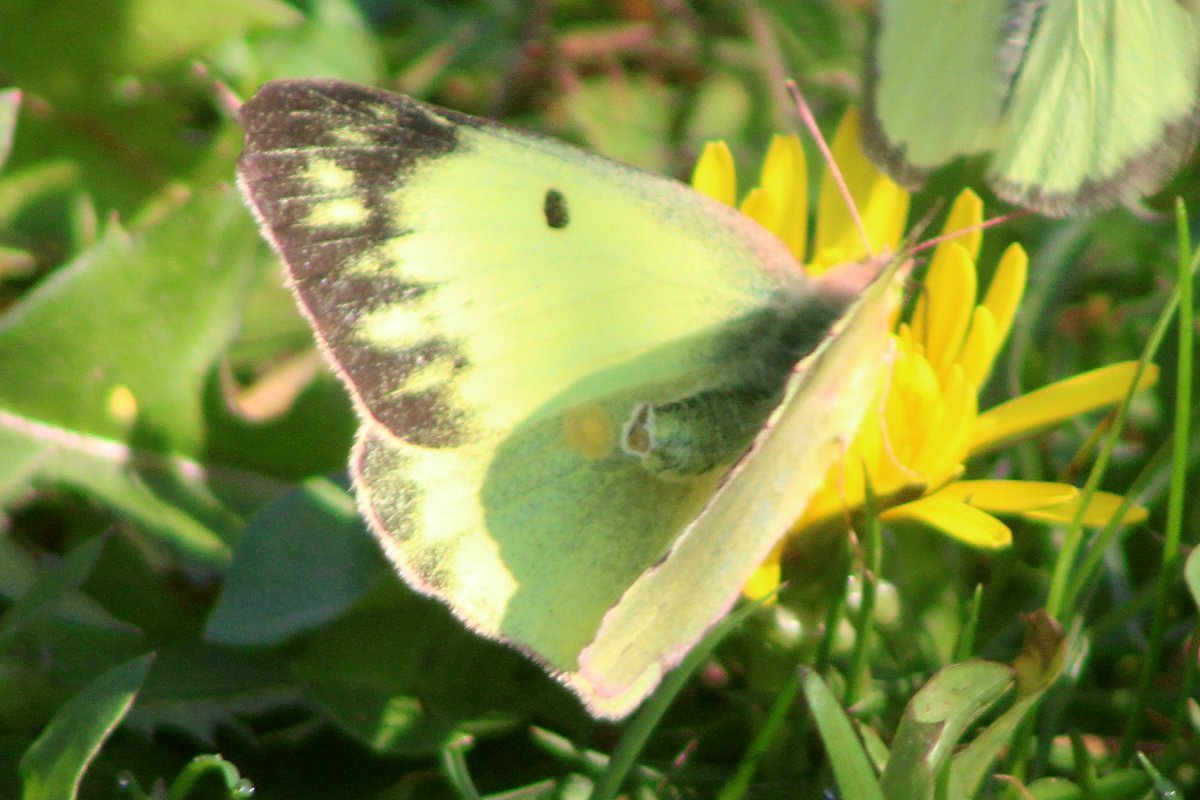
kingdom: Animalia
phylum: Arthropoda
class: Insecta
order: Lepidoptera
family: Pieridae
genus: Colias
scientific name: Colias
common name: Clouded Yellows
